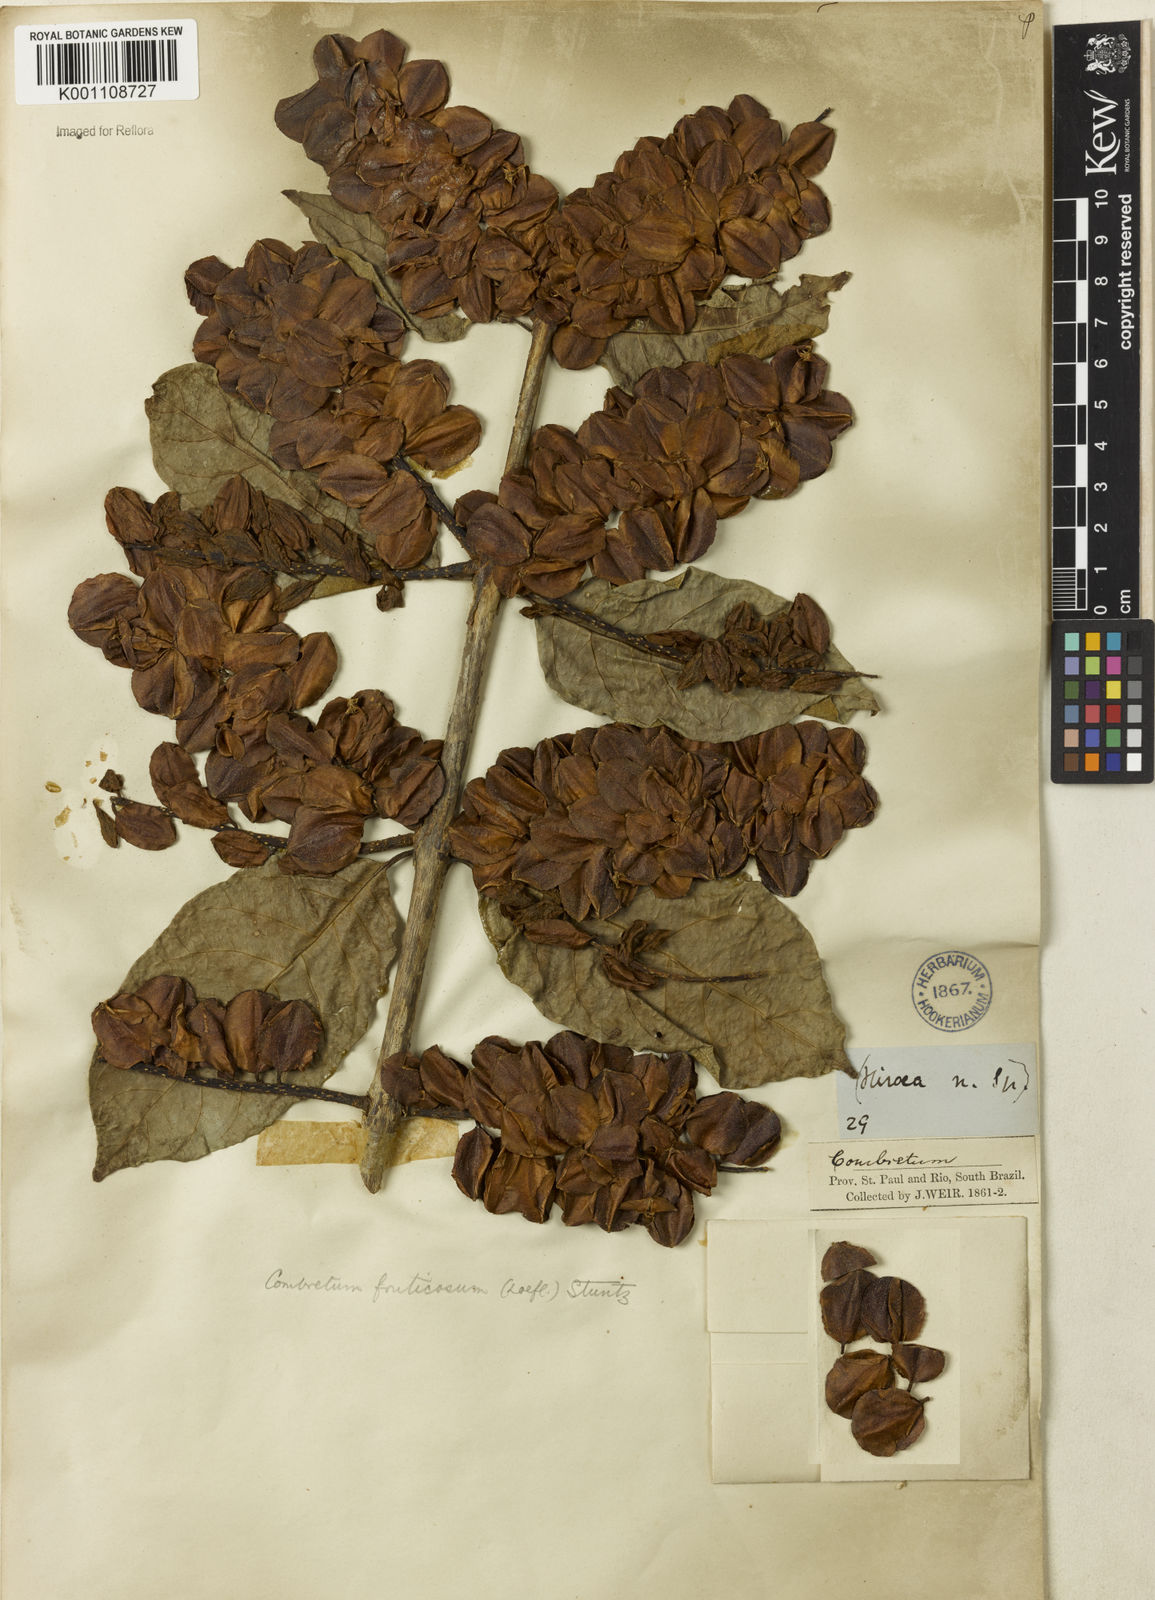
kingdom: Plantae
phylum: Tracheophyta
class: Magnoliopsida
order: Myrtales
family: Combretaceae
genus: Combretum
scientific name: Combretum fruticosum
